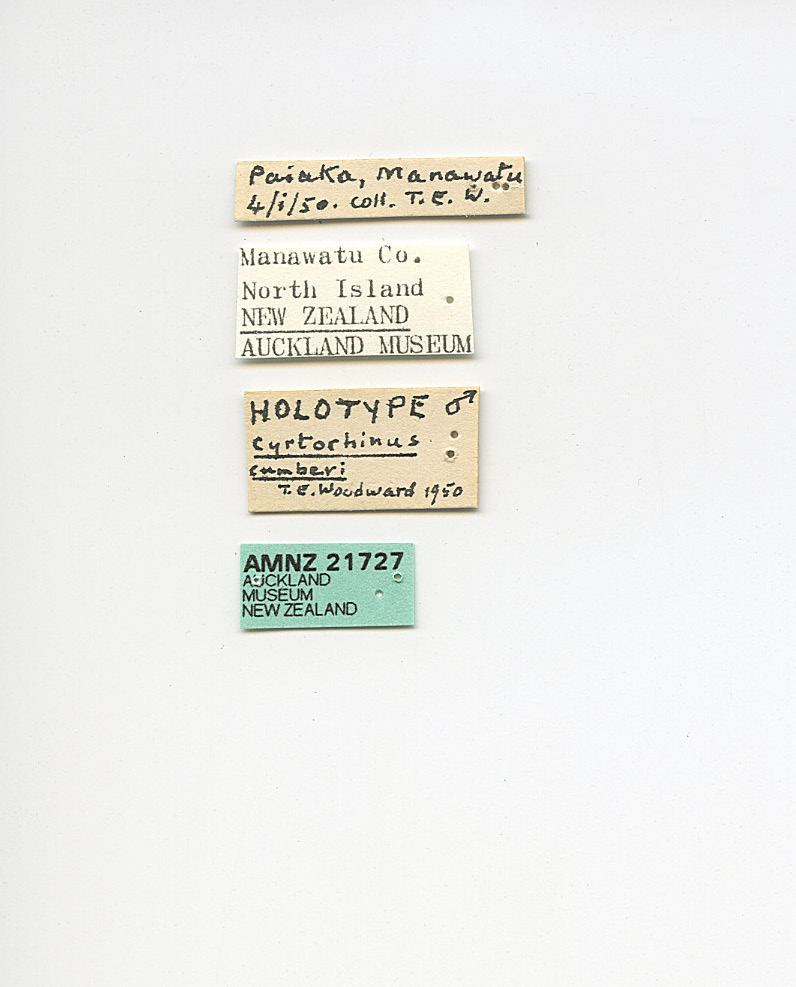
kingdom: Animalia
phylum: Arthropoda
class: Insecta
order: Hemiptera
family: Miridae
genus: Cyrtorhinus
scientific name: Cyrtorhinus cumberi
